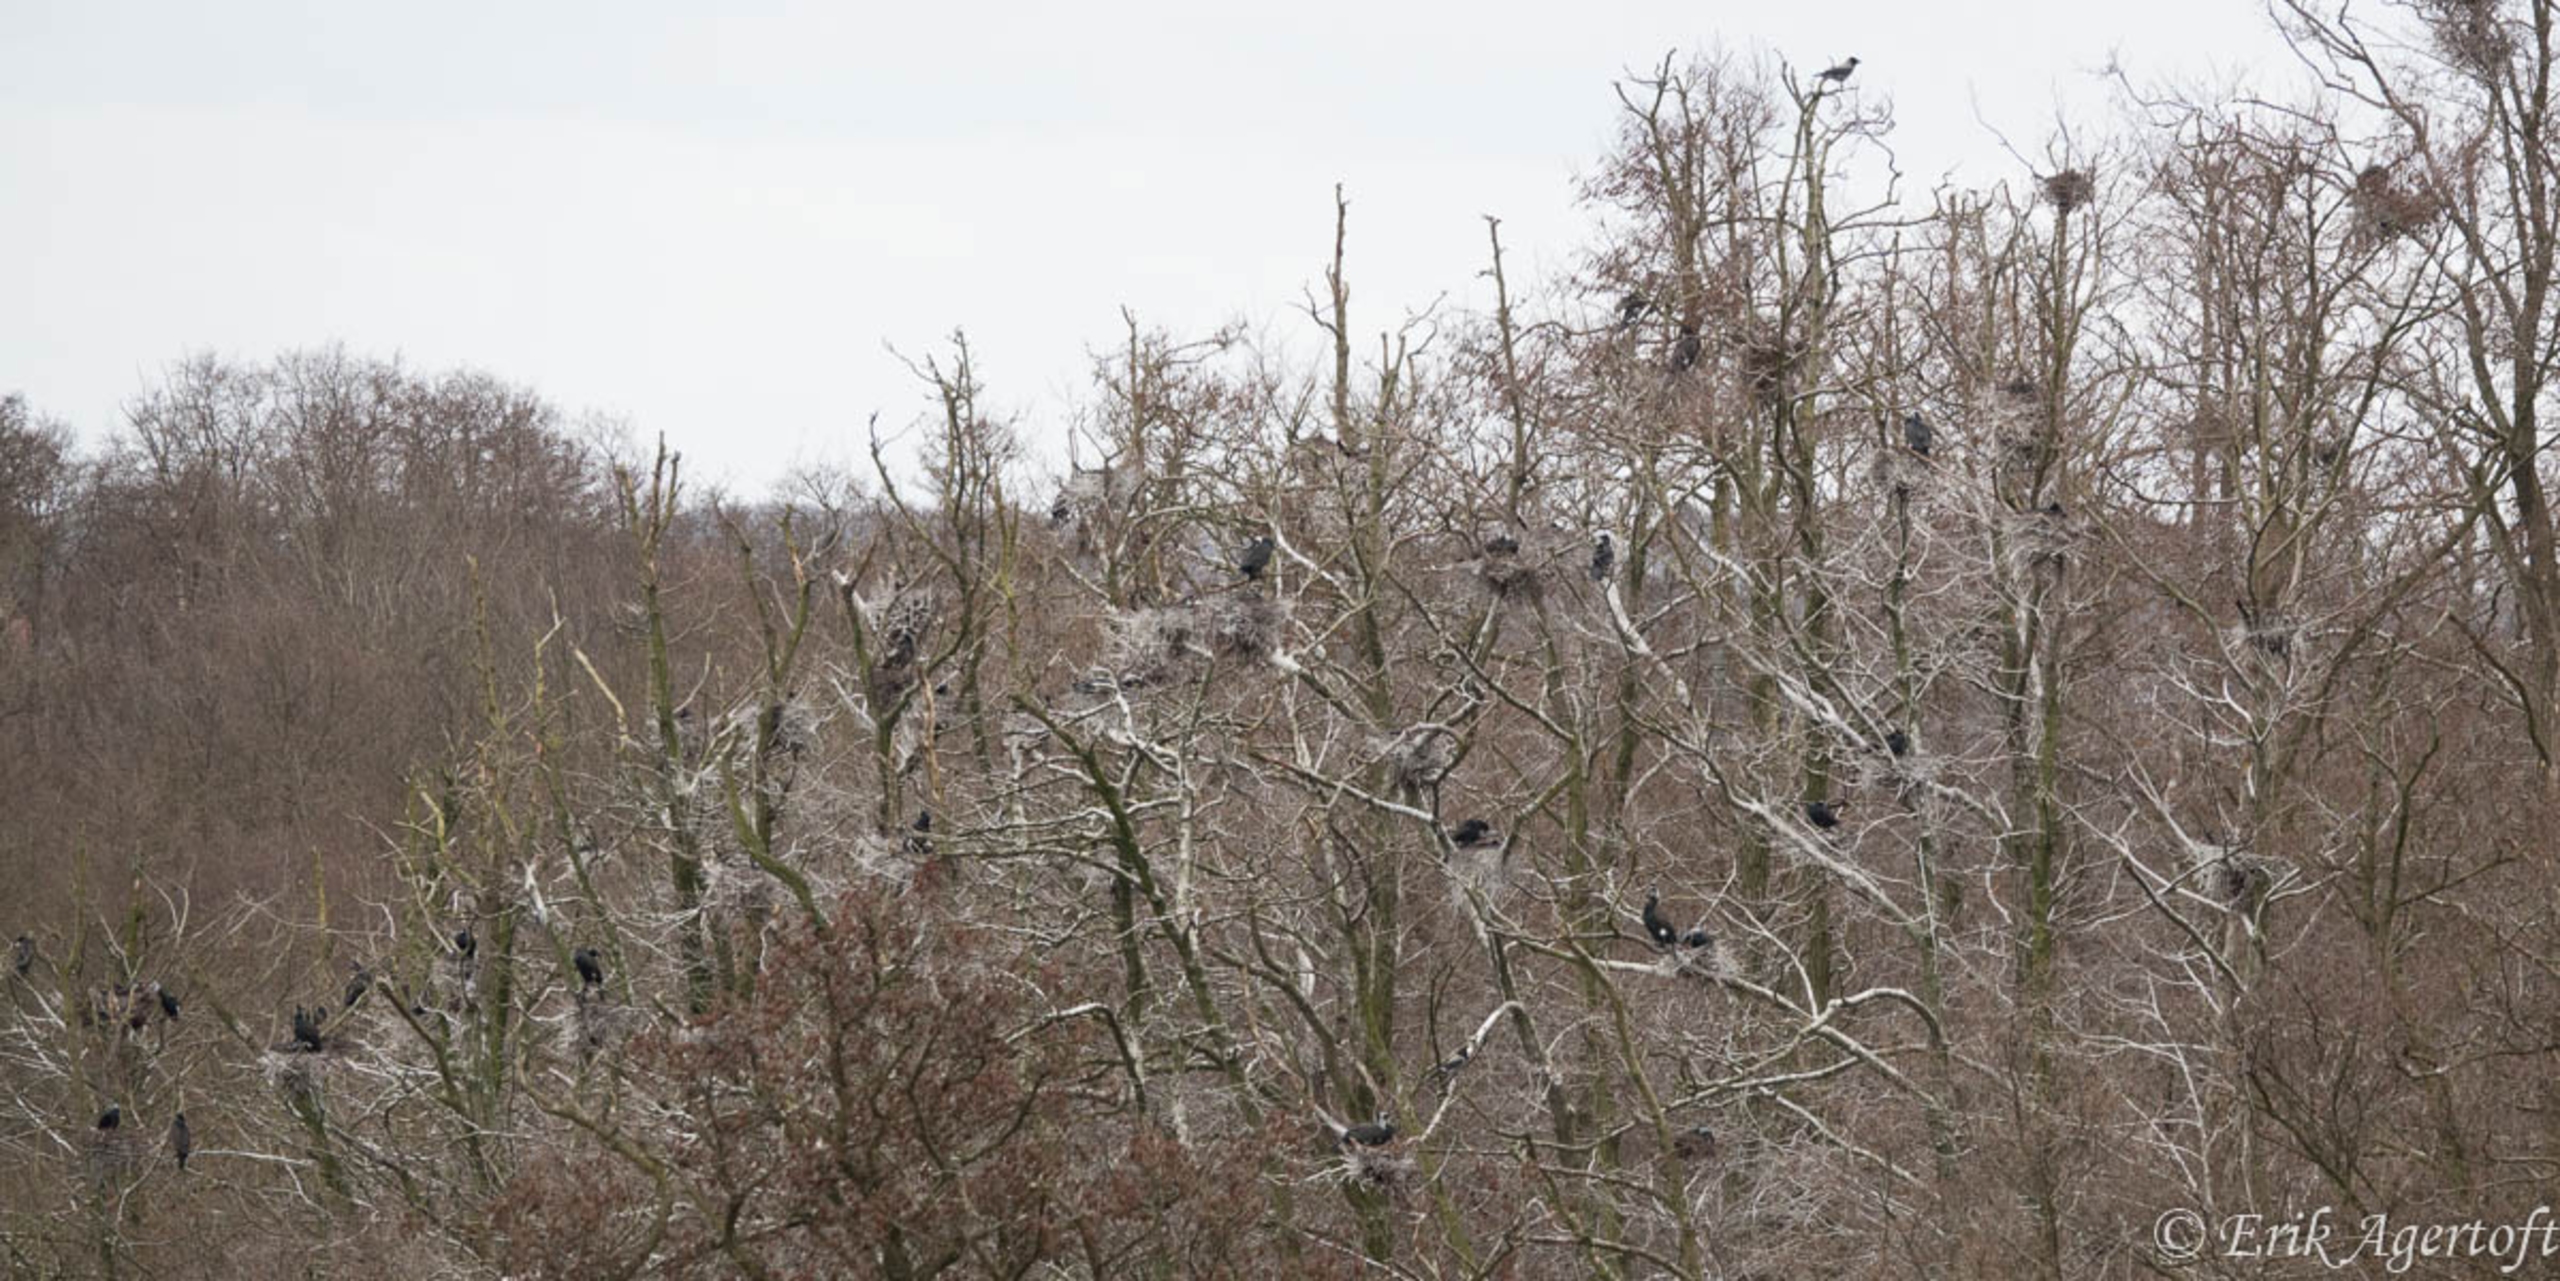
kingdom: Animalia
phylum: Chordata
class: Aves
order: Suliformes
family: Phalacrocoracidae
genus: Phalacrocorax
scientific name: Phalacrocorax carbo
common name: Mellemskarv
